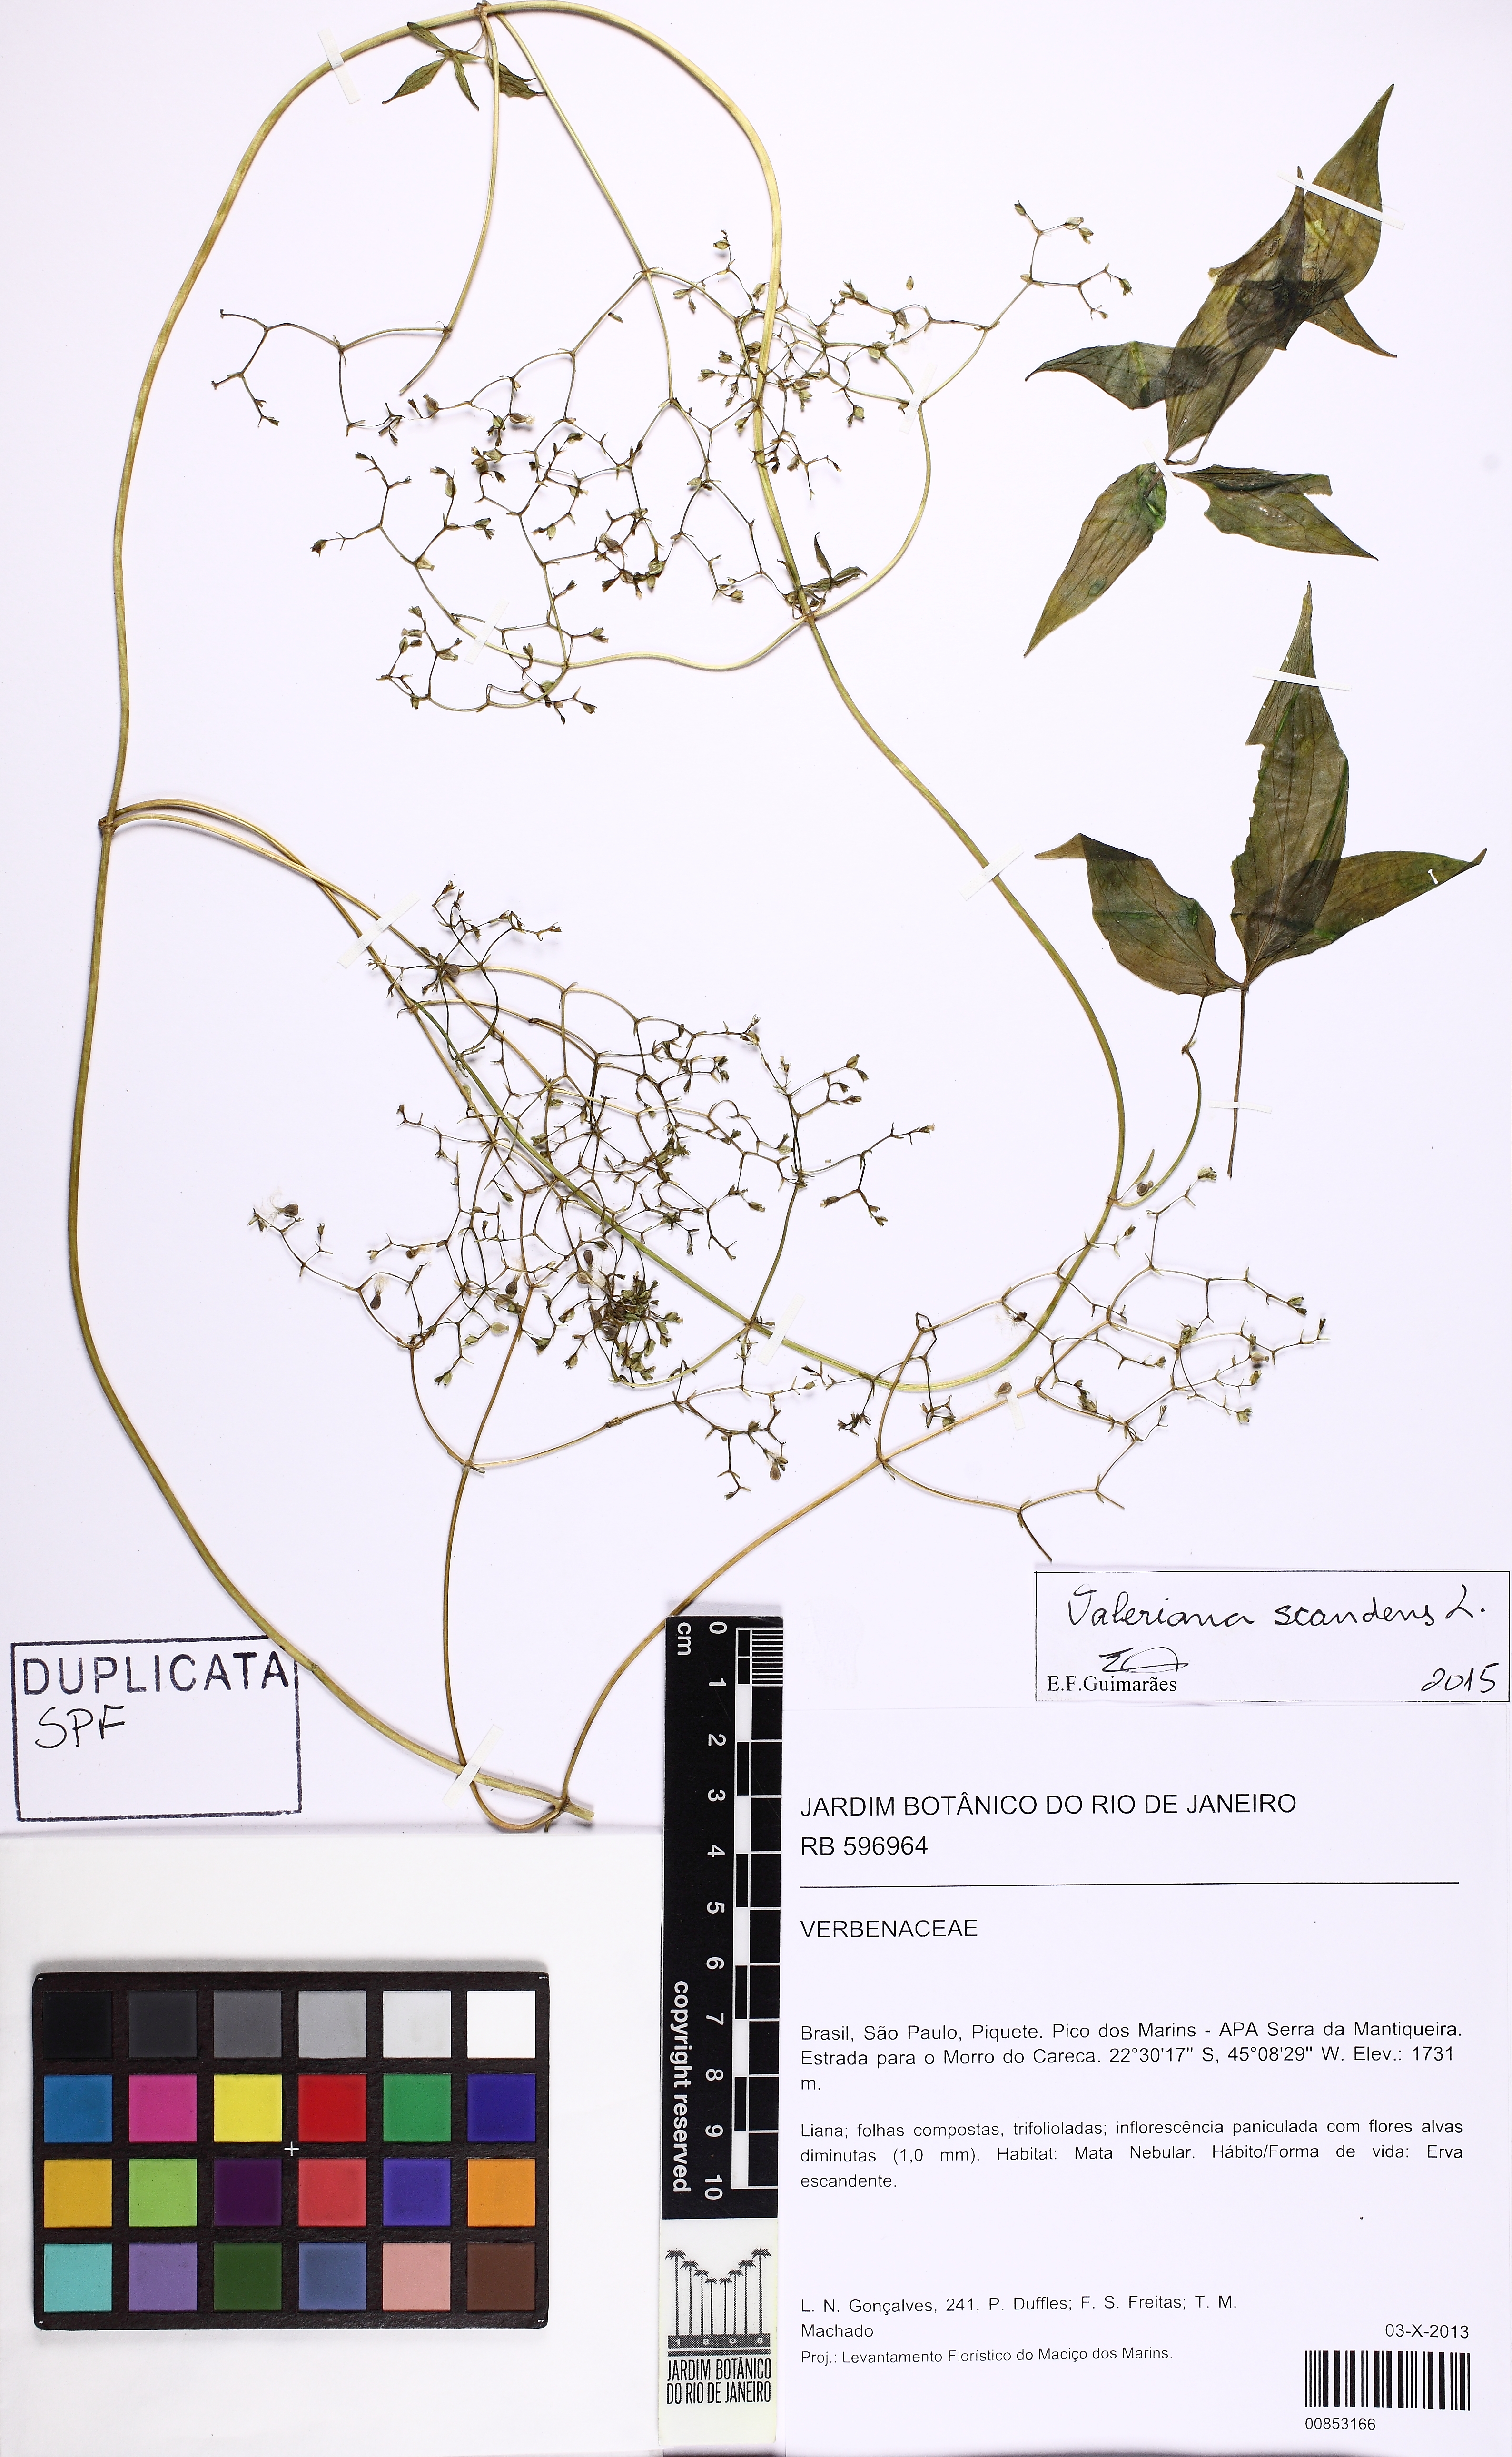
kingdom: Plantae
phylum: Tracheophyta
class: Magnoliopsida
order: Dipsacales
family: Caprifoliaceae
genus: Valeriana
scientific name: Valeriana scandens
